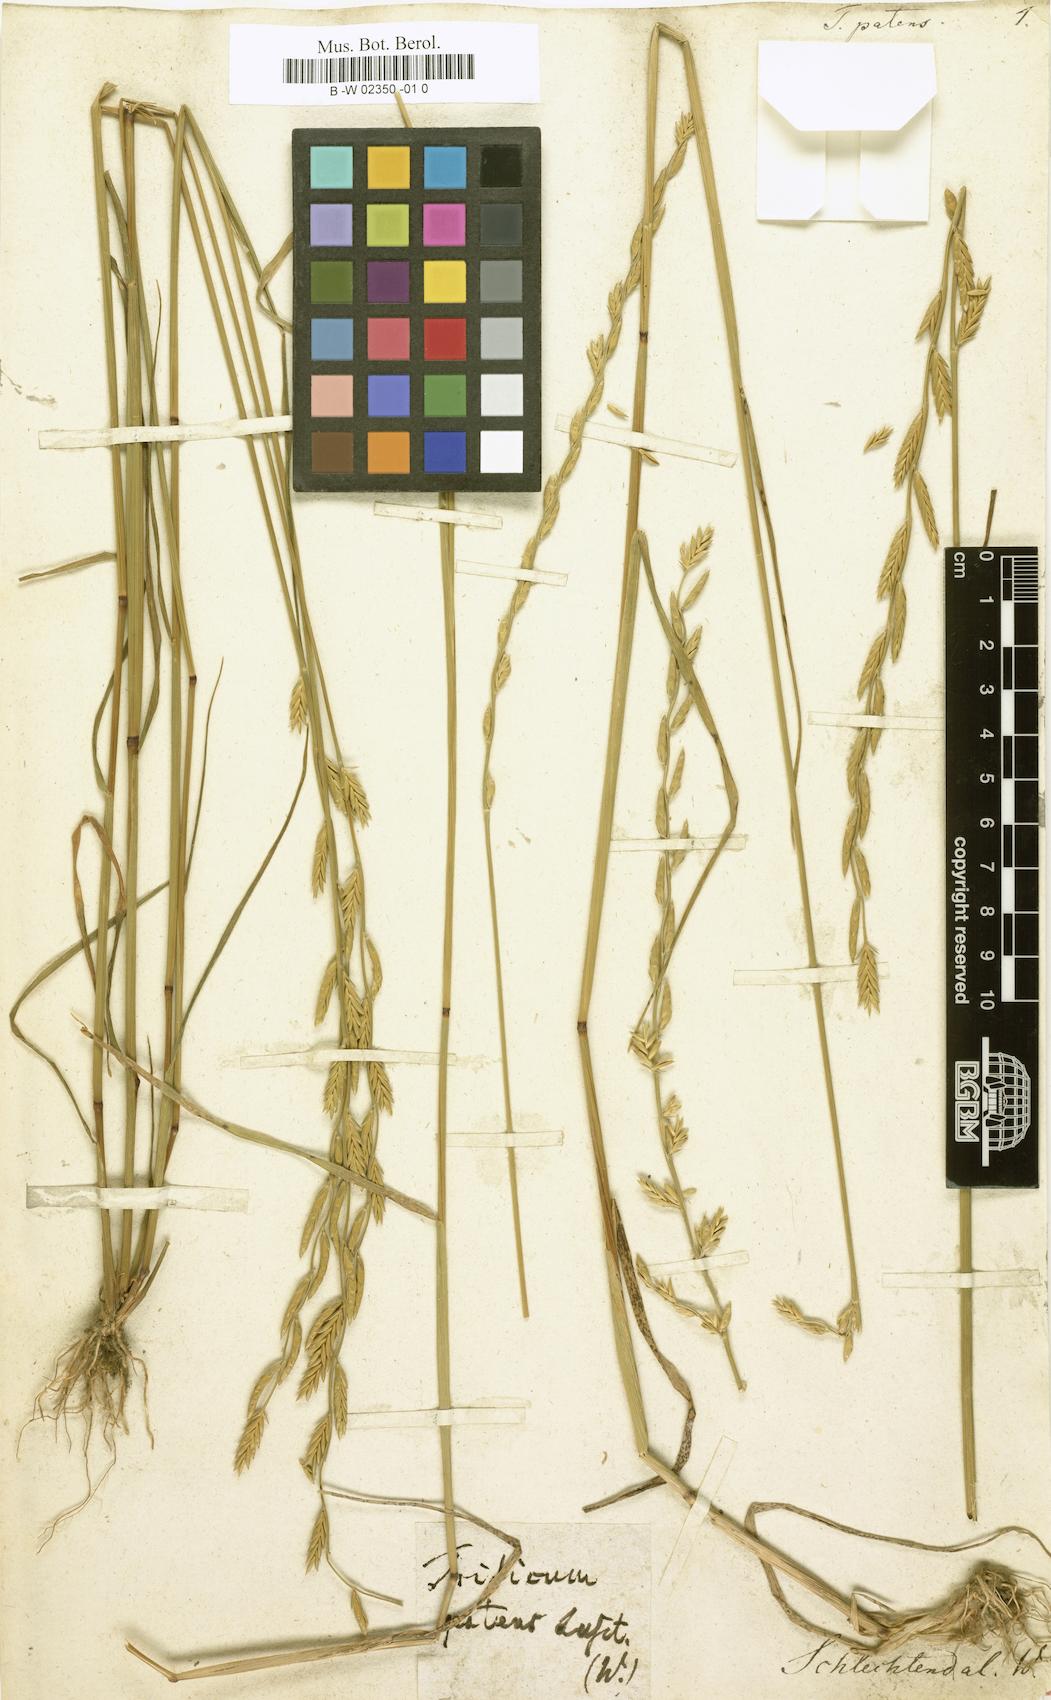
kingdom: Plantae
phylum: Tracheophyta
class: Liliopsida
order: Poales
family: Poaceae
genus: Festuca
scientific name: Festuca Micropyrum patens
